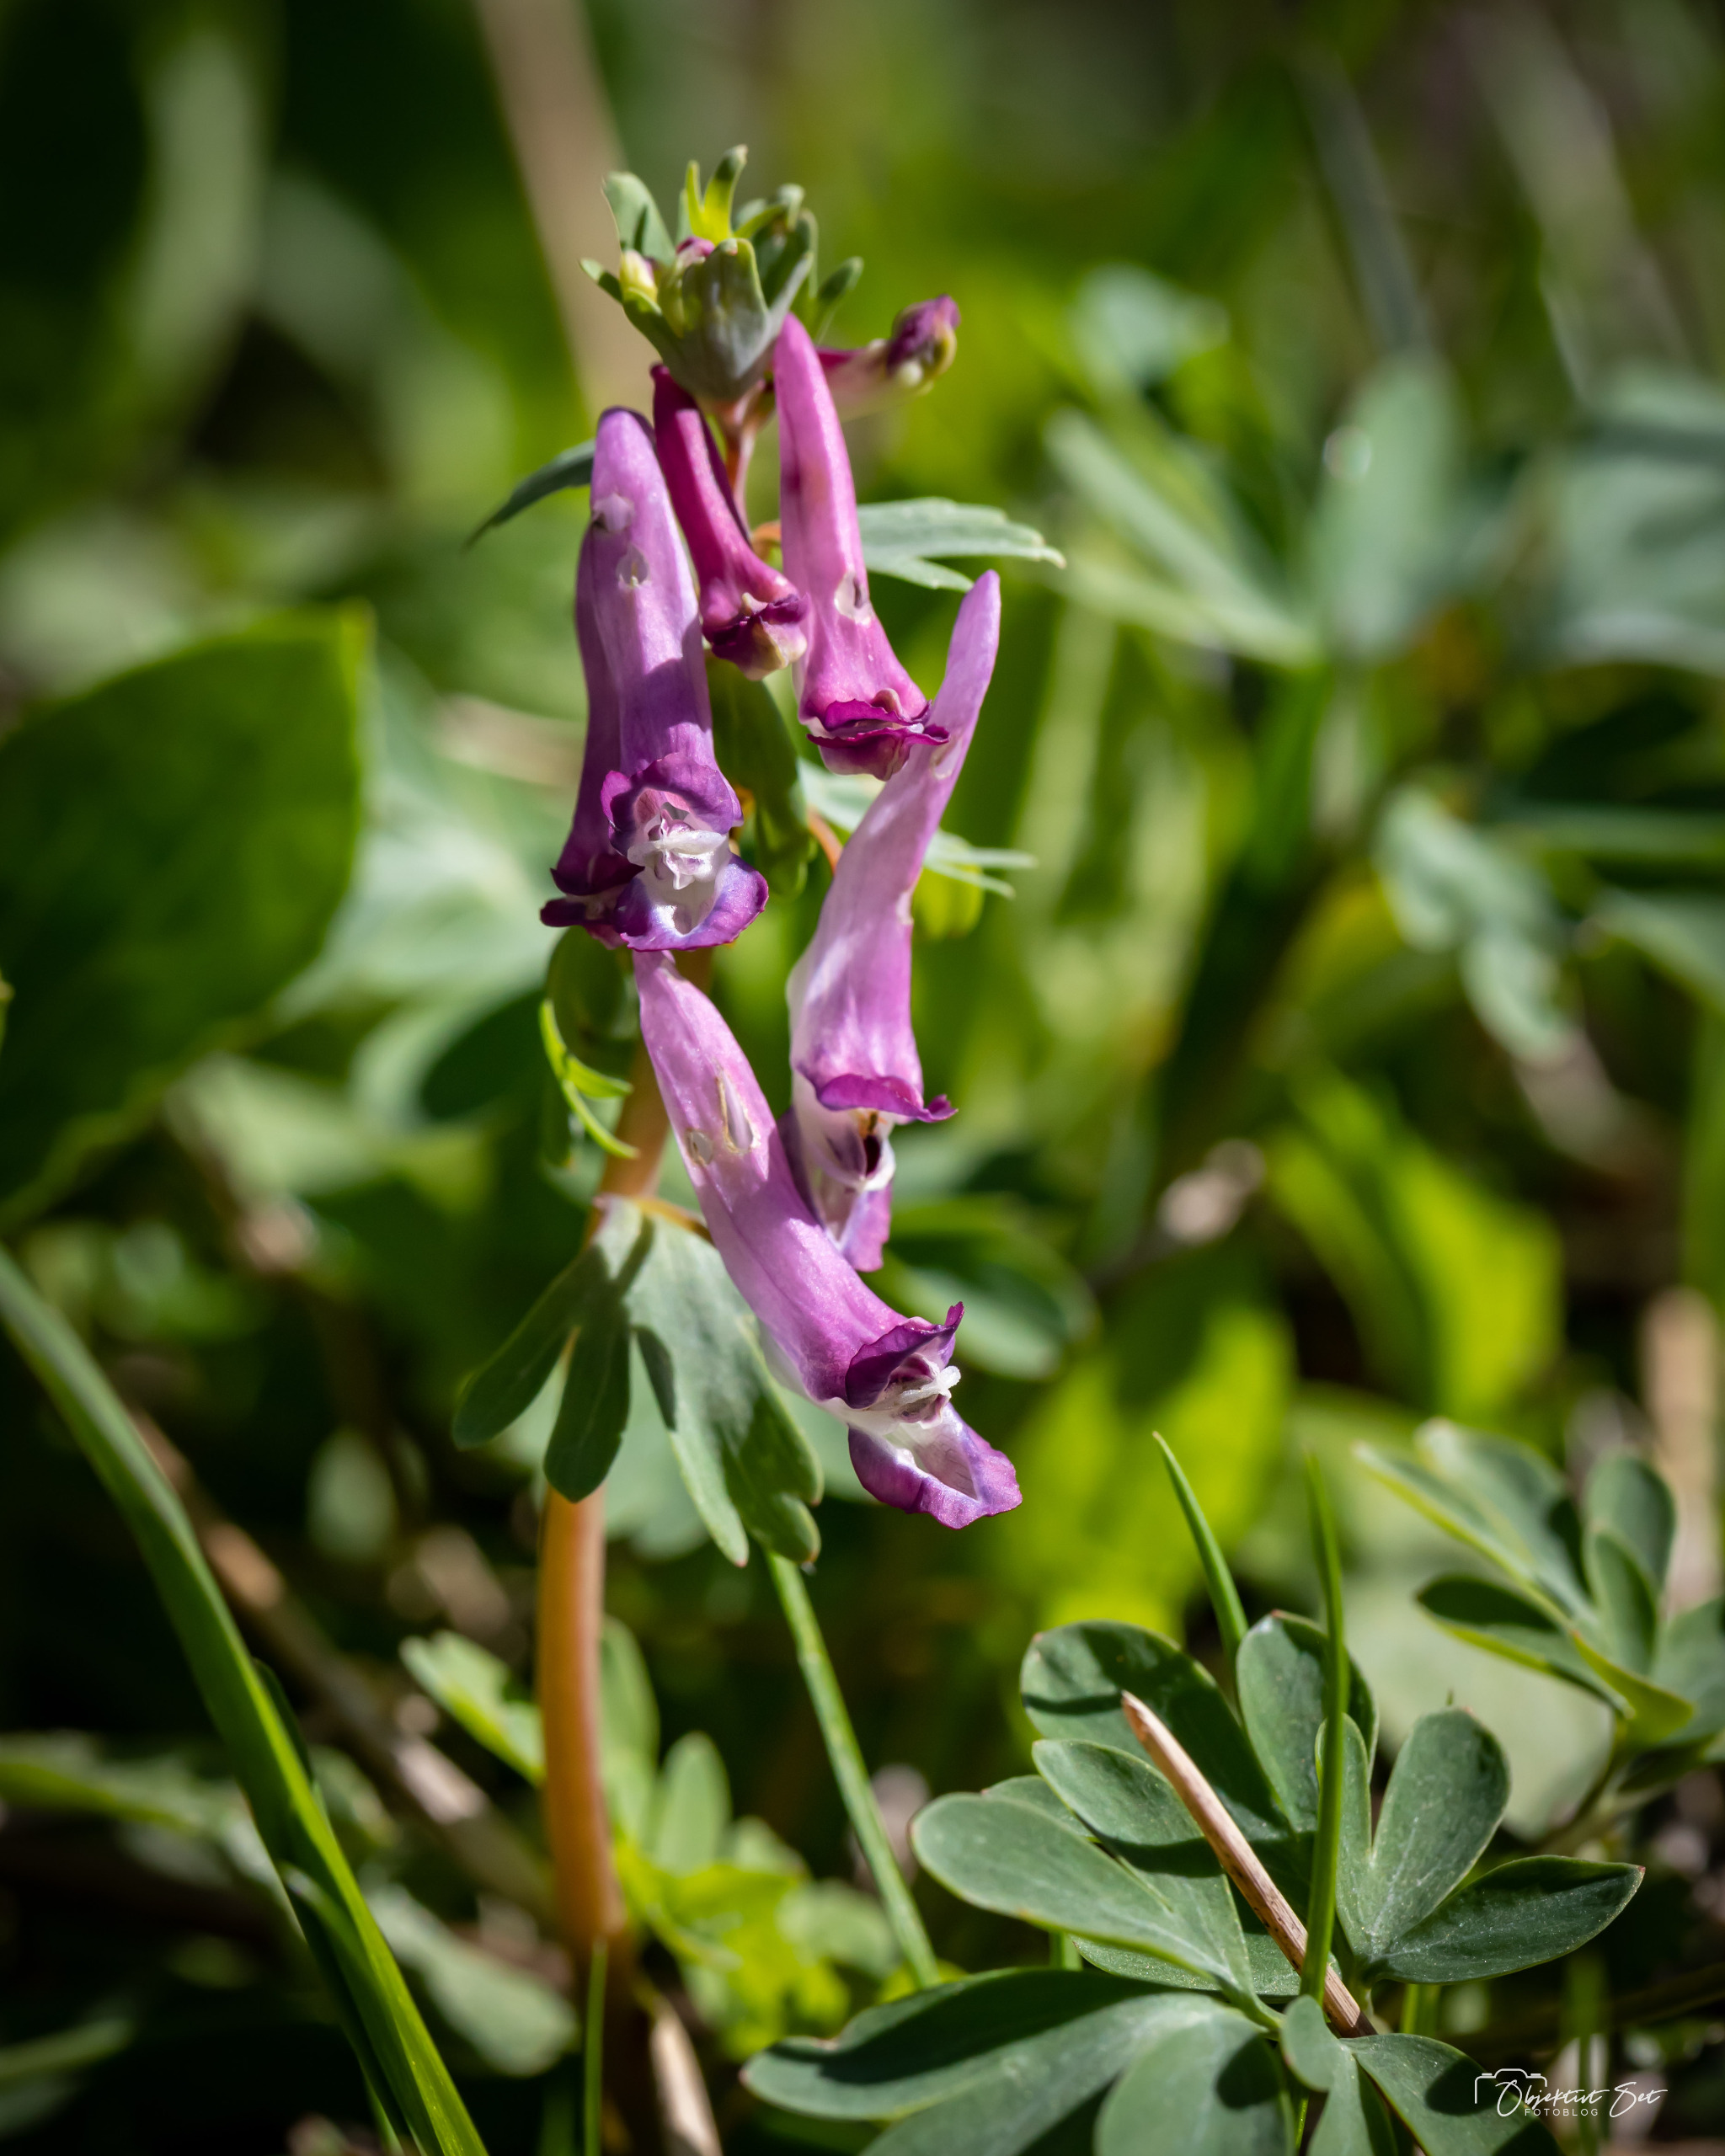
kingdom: Plantae
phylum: Tracheophyta
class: Magnoliopsida
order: Ranunculales
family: Papaveraceae
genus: Corydalis
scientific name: Corydalis solida
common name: Langstilket lærkespore
